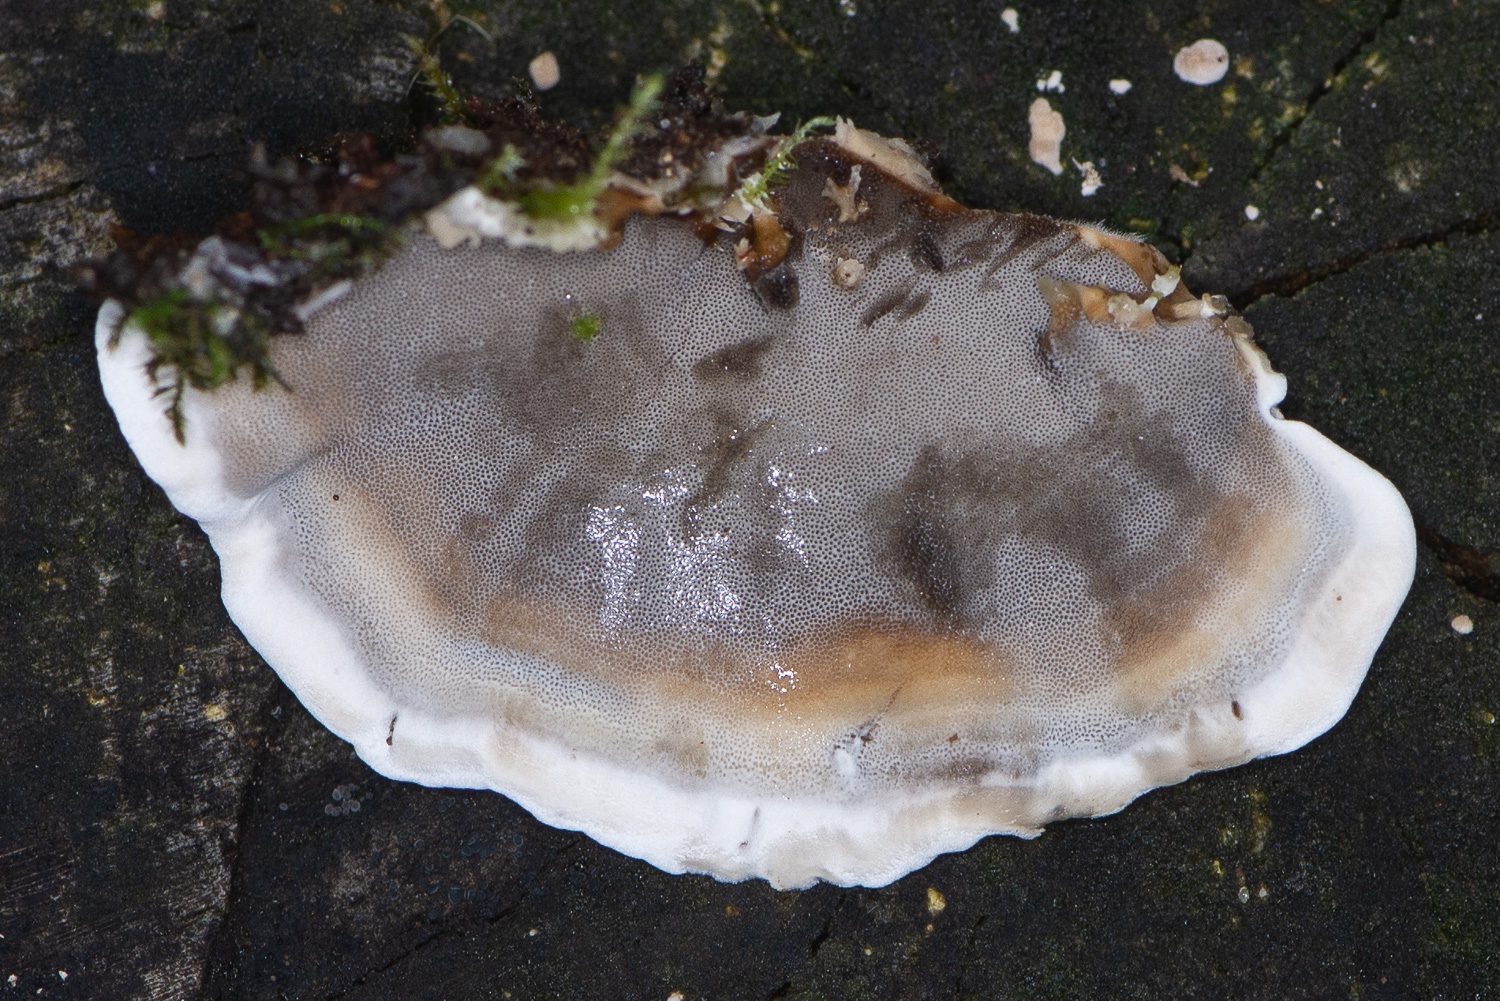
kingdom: Fungi
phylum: Basidiomycota
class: Agaricomycetes
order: Polyporales
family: Phanerochaetaceae
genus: Bjerkandera
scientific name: Bjerkandera adusta
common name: sveden sodporesvamp
